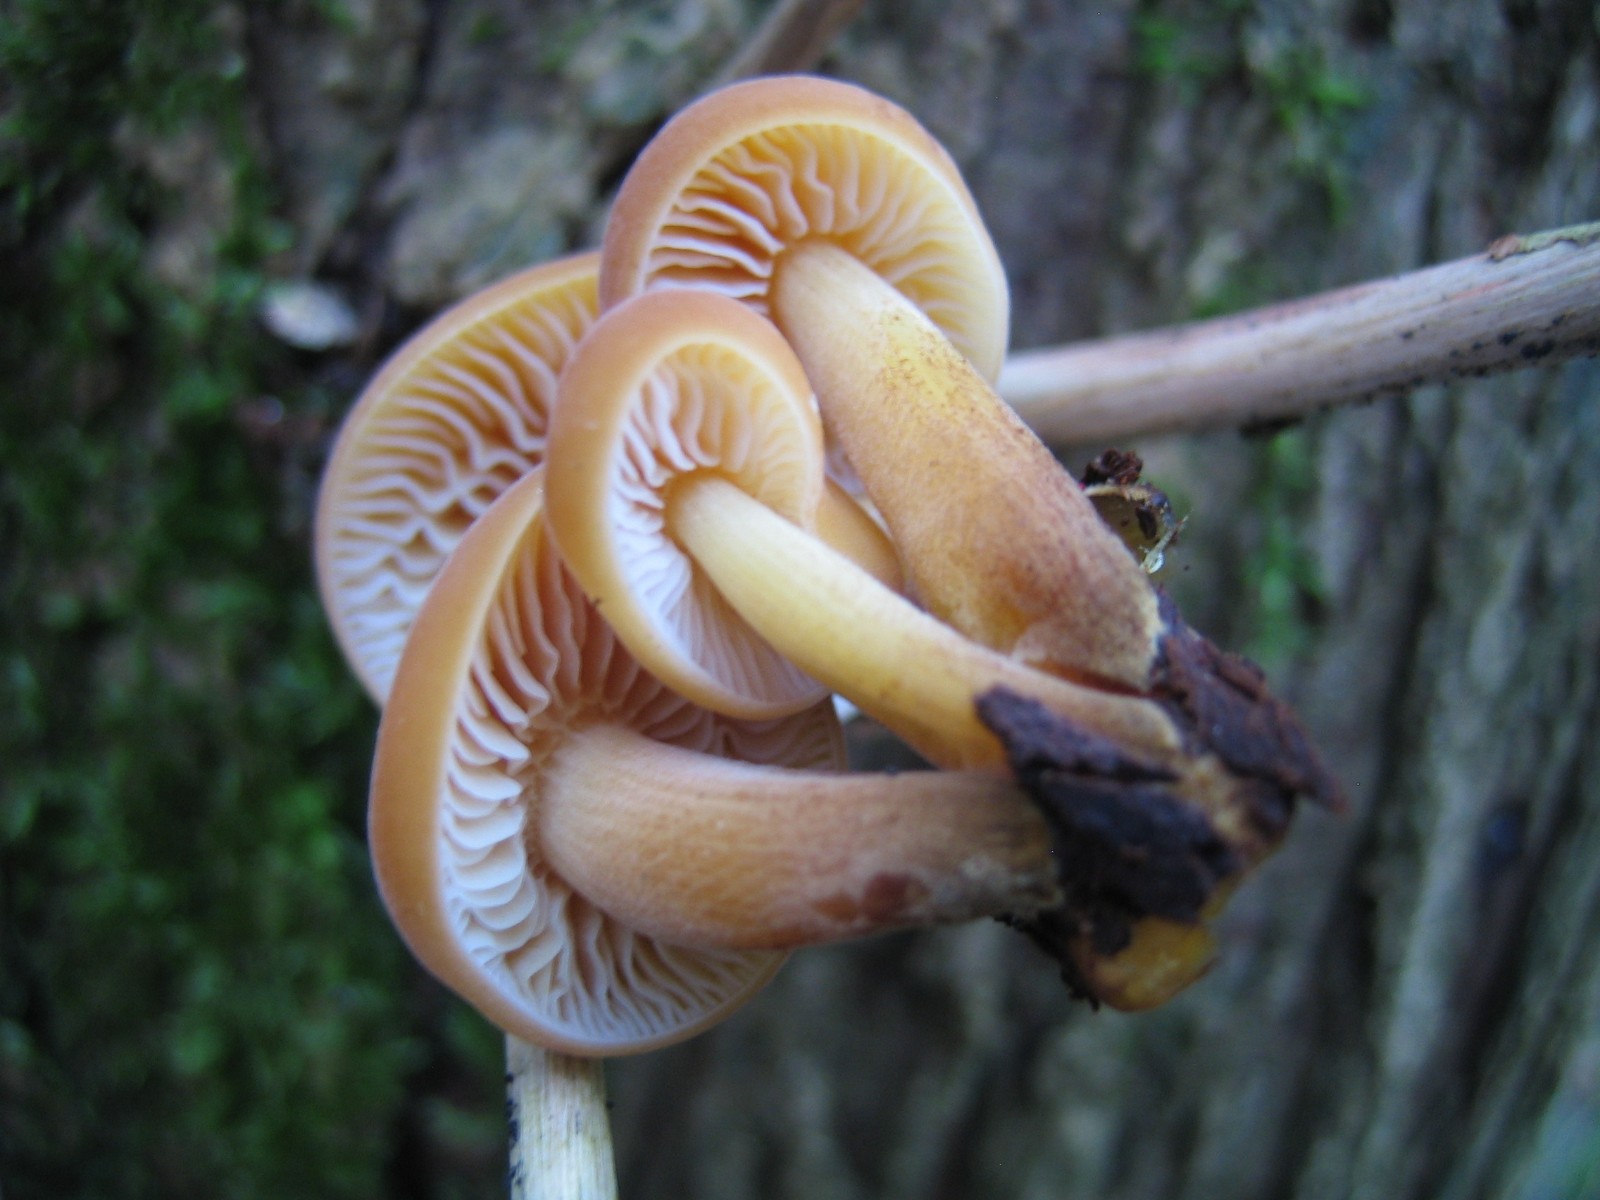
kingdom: Fungi
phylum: Basidiomycota
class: Agaricomycetes
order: Agaricales
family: Physalacriaceae
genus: Flammulina
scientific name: Flammulina
